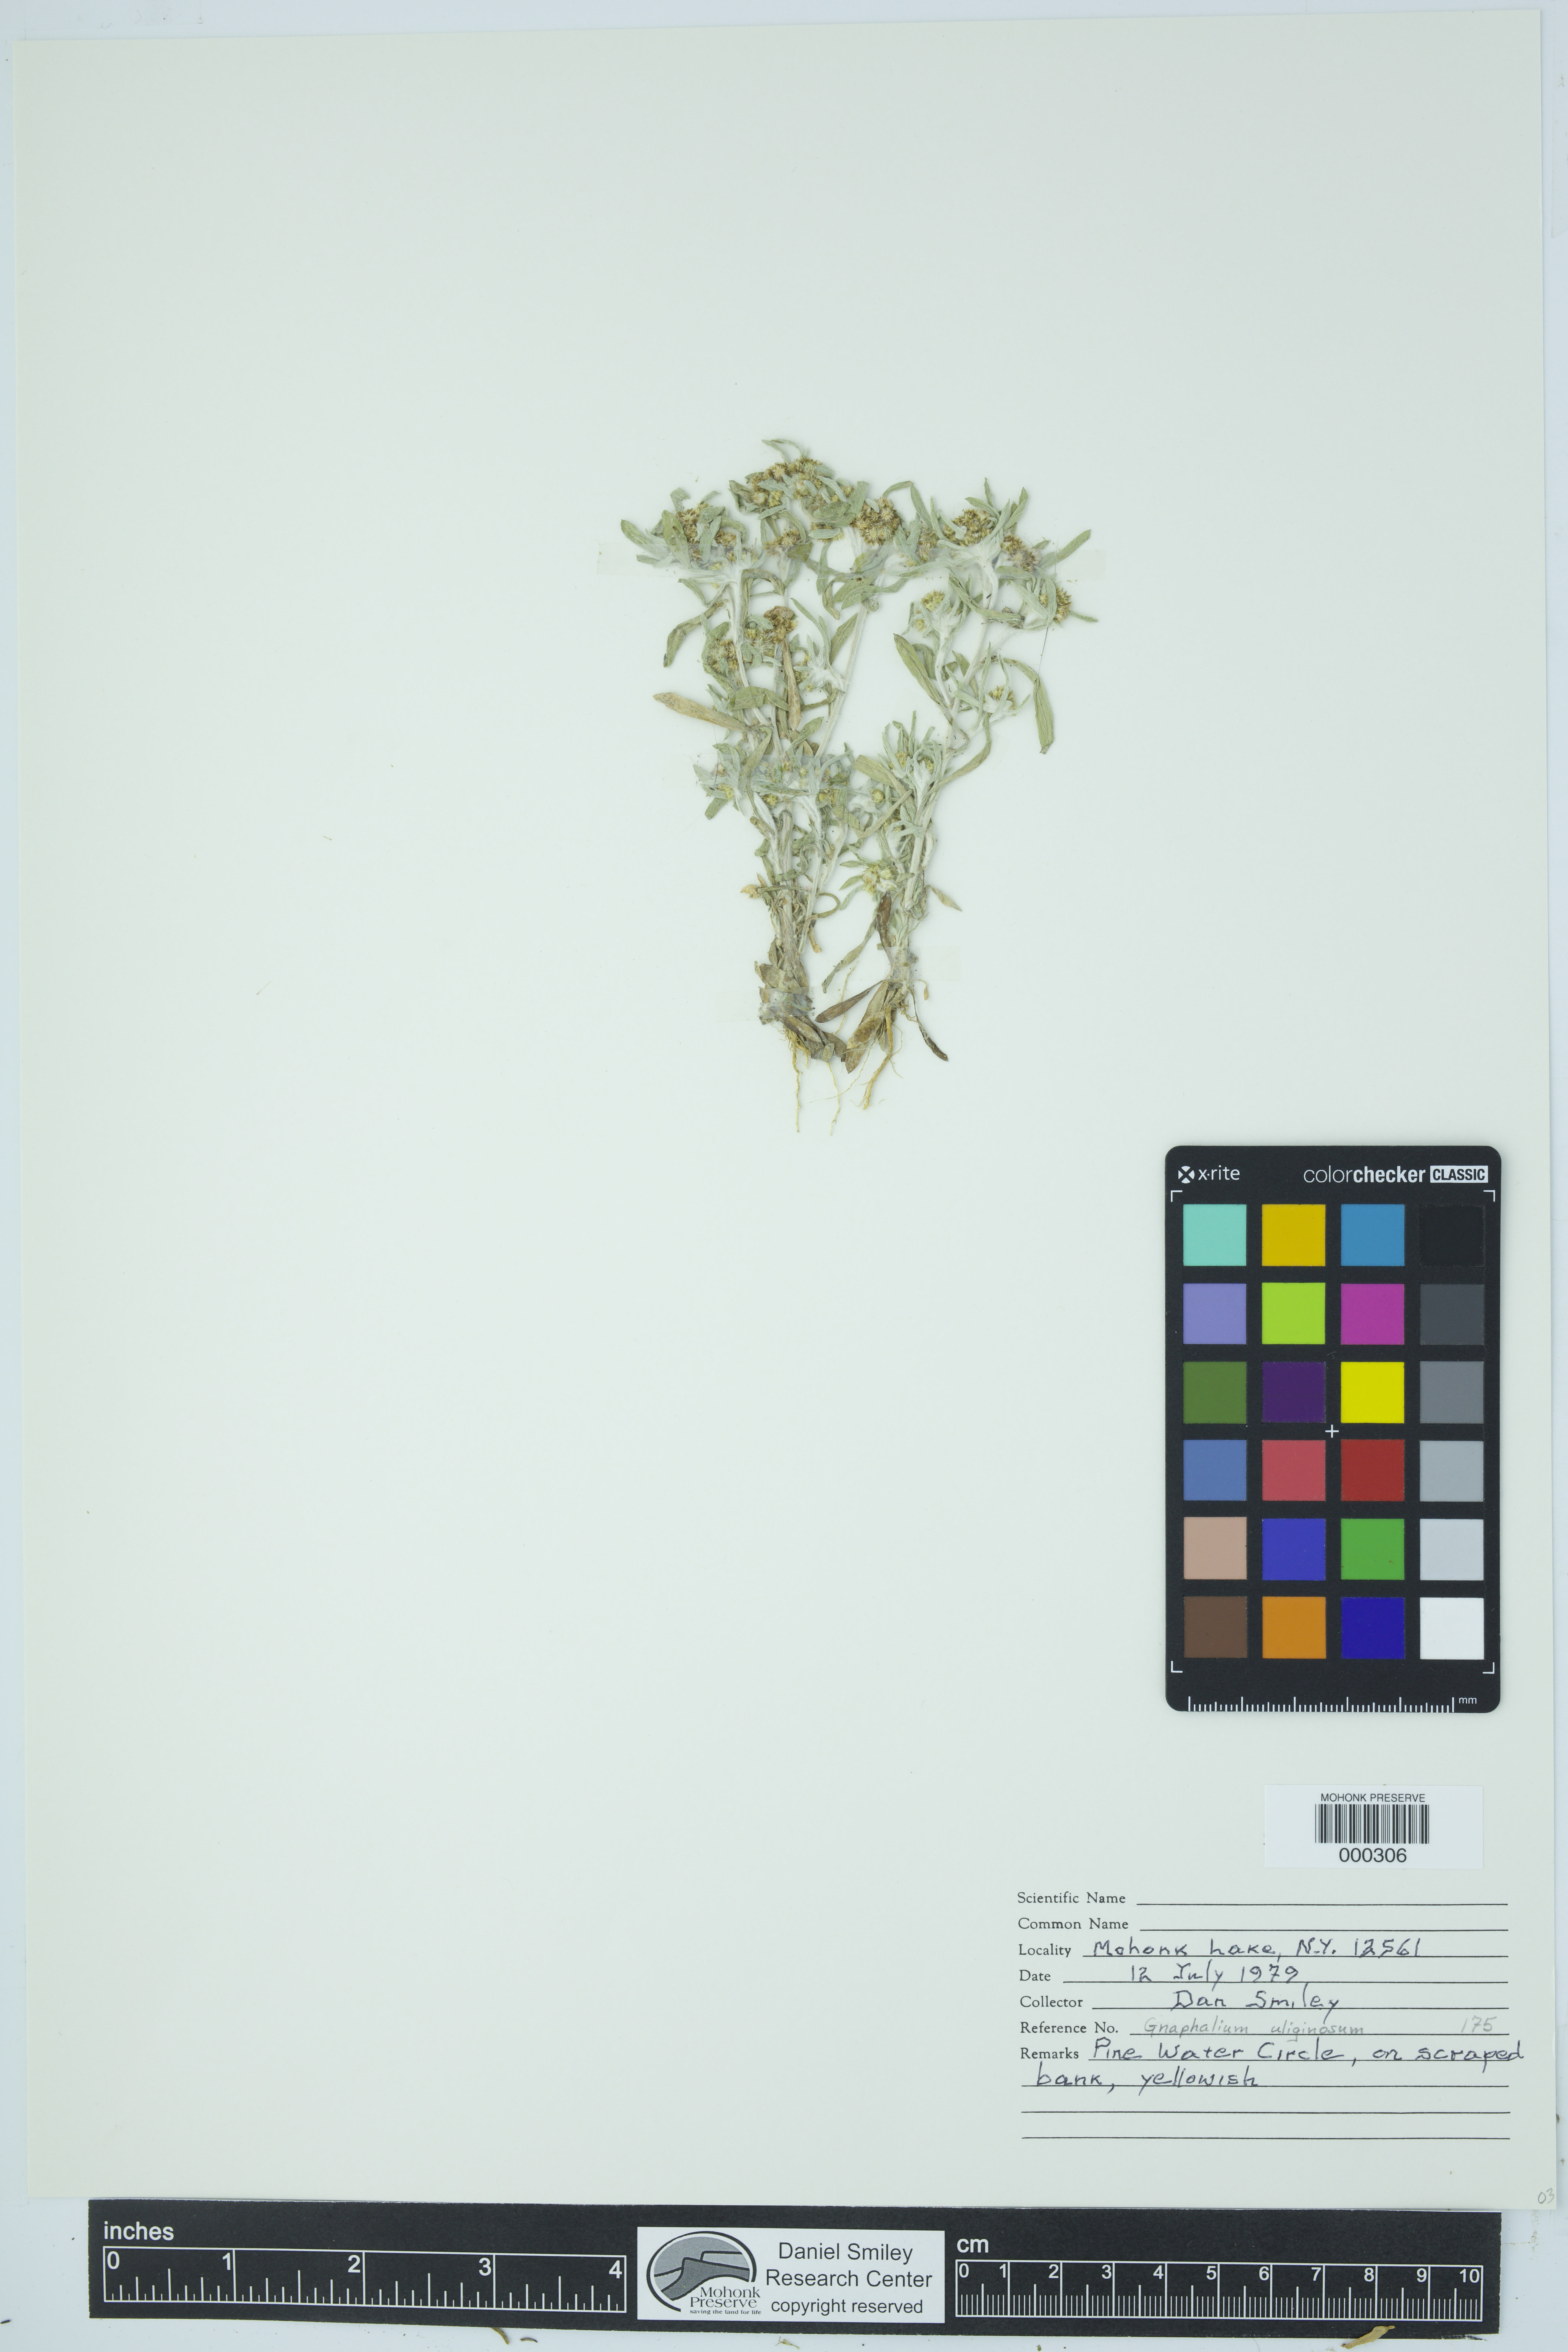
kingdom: Plantae
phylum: Tracheophyta
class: Magnoliopsida
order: Asterales
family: Asteraceae
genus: Gnaphalium
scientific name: Gnaphalium uliginosum
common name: Marsh cudweed
